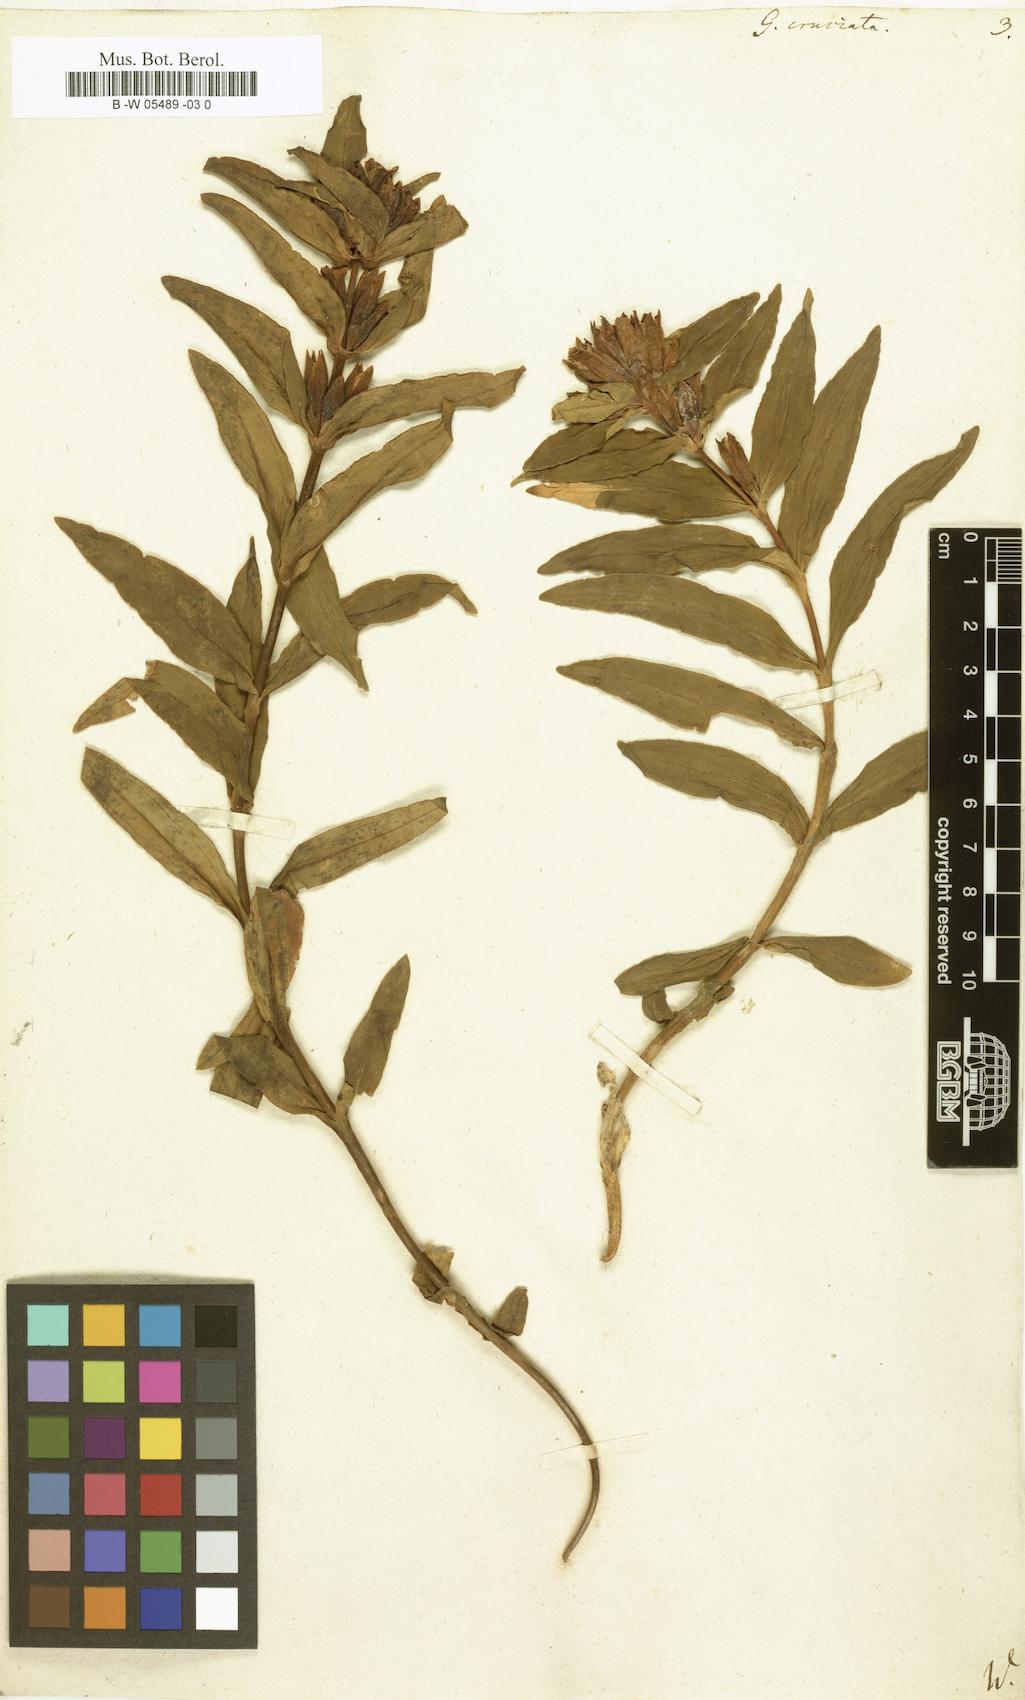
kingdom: Plantae
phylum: Tracheophyta
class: Magnoliopsida
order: Gentianales
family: Gentianaceae
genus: Gentiana
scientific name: Gentiana cruciata
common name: Cross gentian
